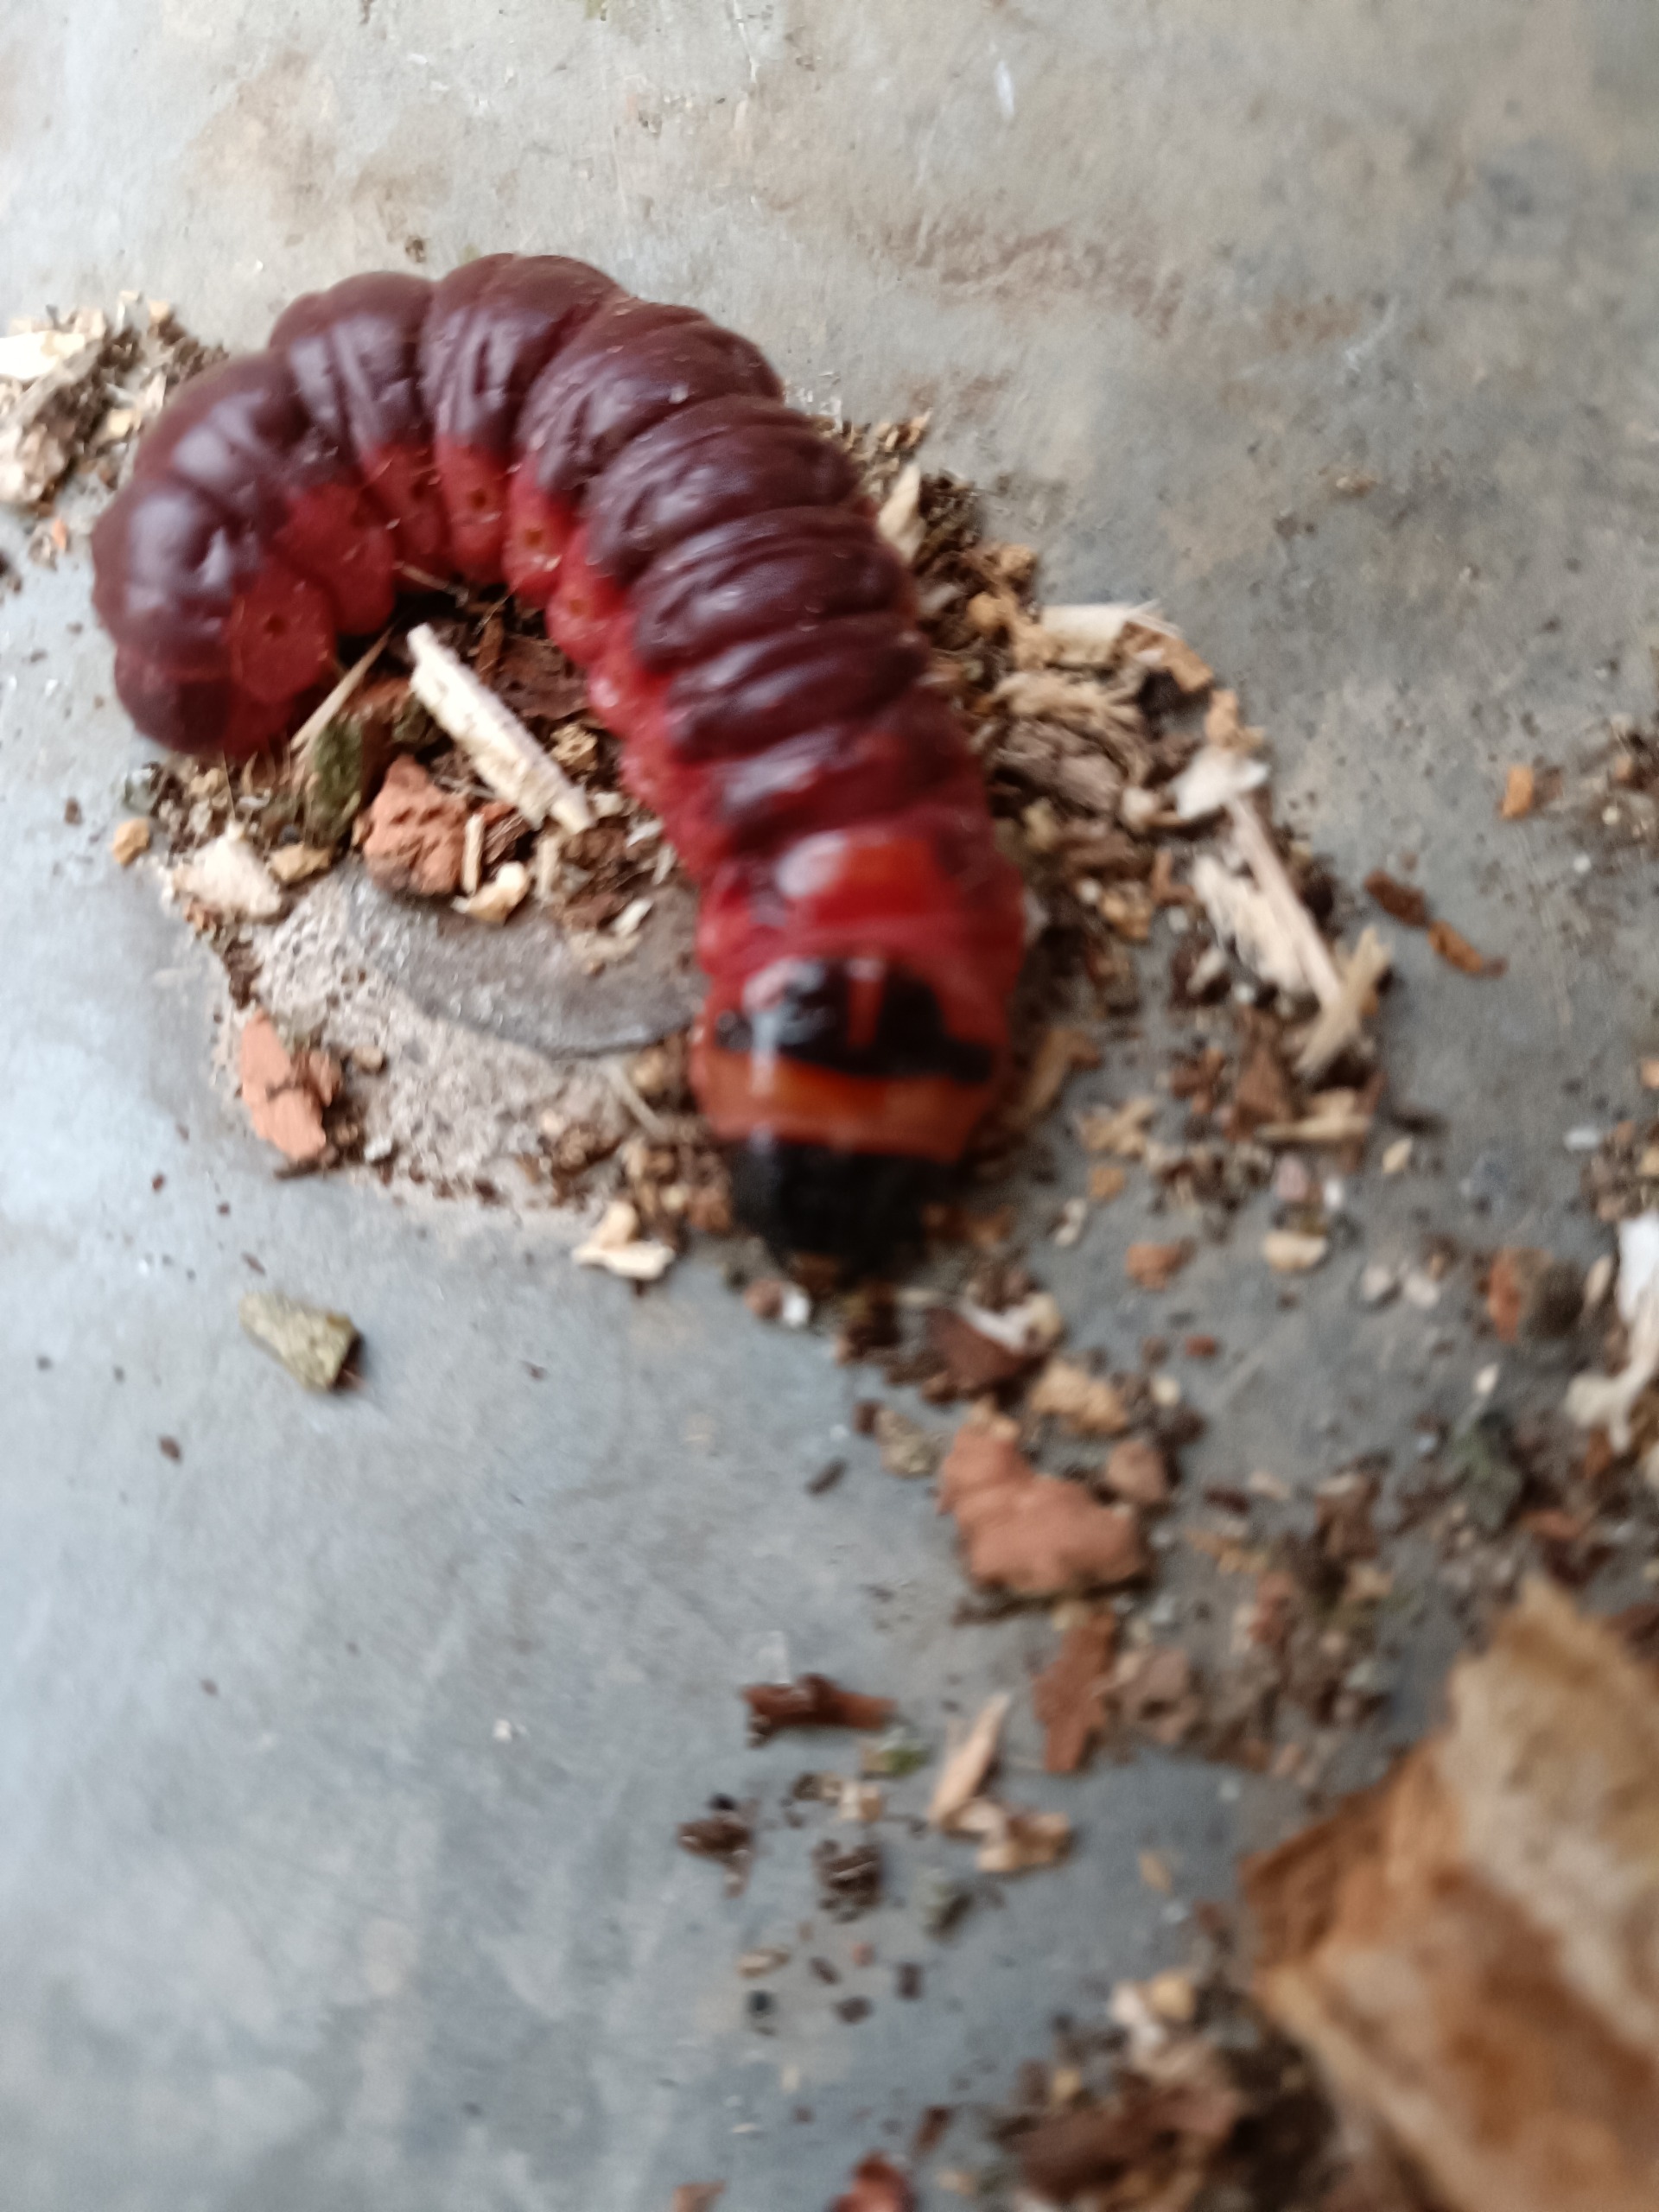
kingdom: Animalia
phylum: Arthropoda
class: Insecta
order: Lepidoptera
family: Cossidae
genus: Cossus
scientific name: Cossus cossus
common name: Pileborer
